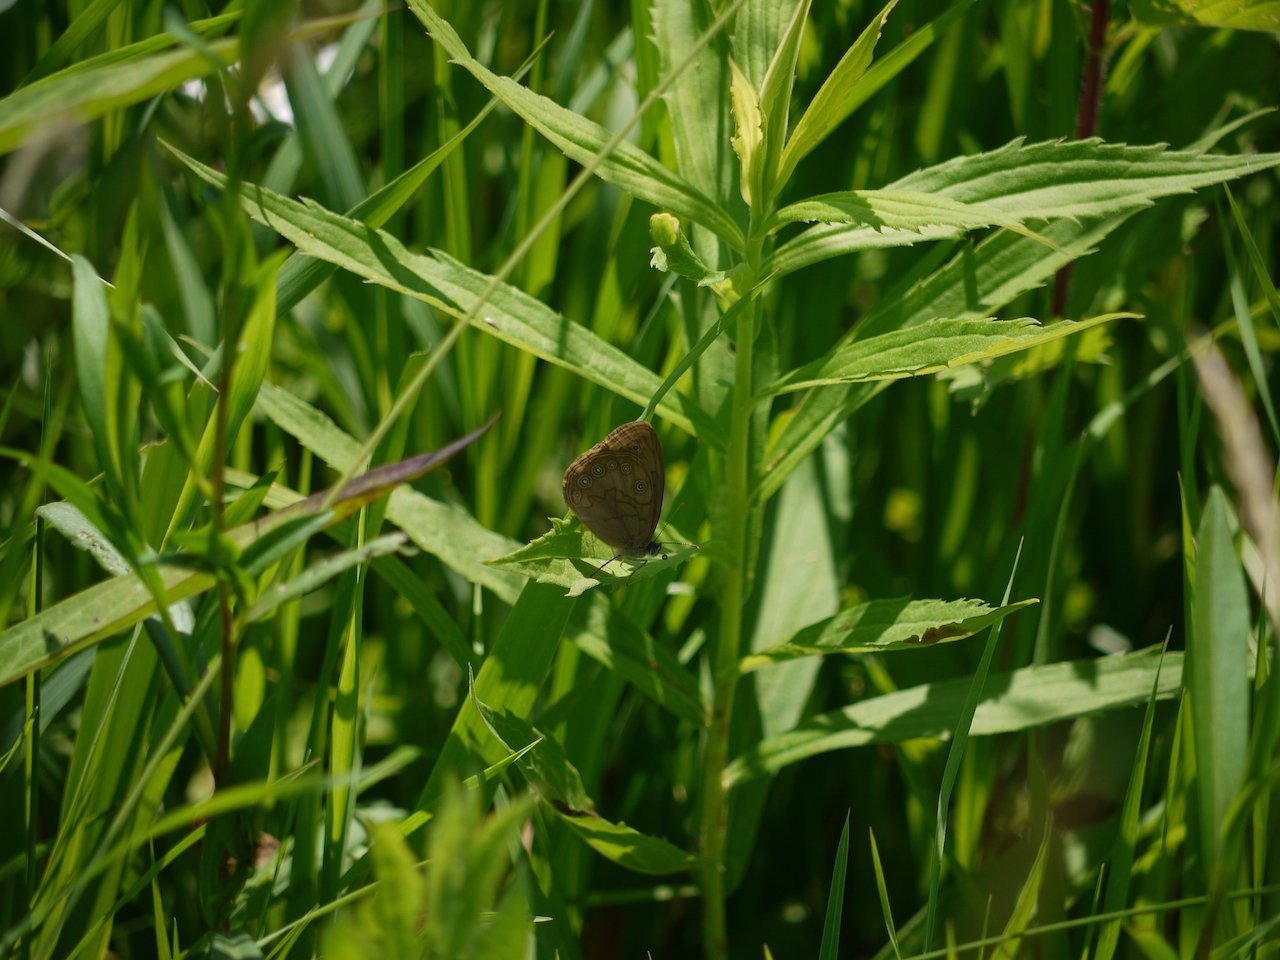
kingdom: Animalia
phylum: Arthropoda
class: Insecta
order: Lepidoptera
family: Nymphalidae
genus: Lethe
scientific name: Lethe
